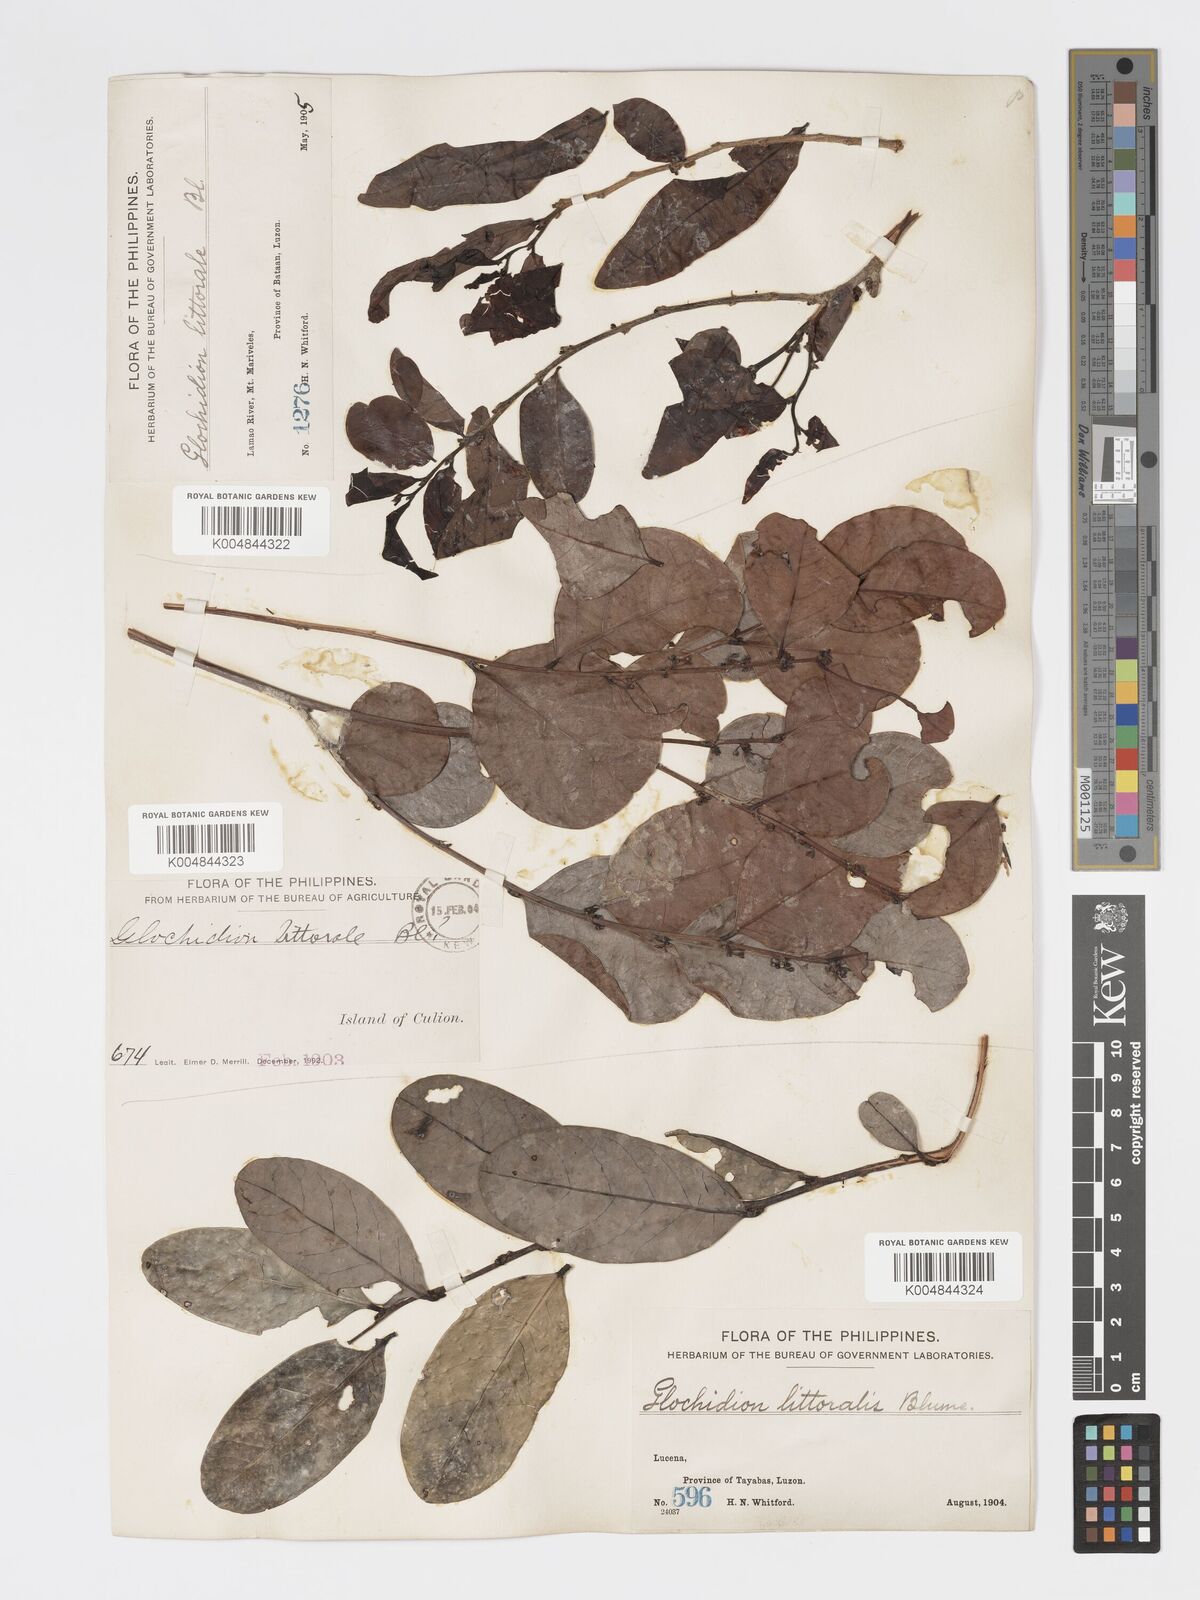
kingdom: Plantae
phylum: Tracheophyta
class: Magnoliopsida
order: Malpighiales
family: Phyllanthaceae
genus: Glochidion
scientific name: Glochidion
